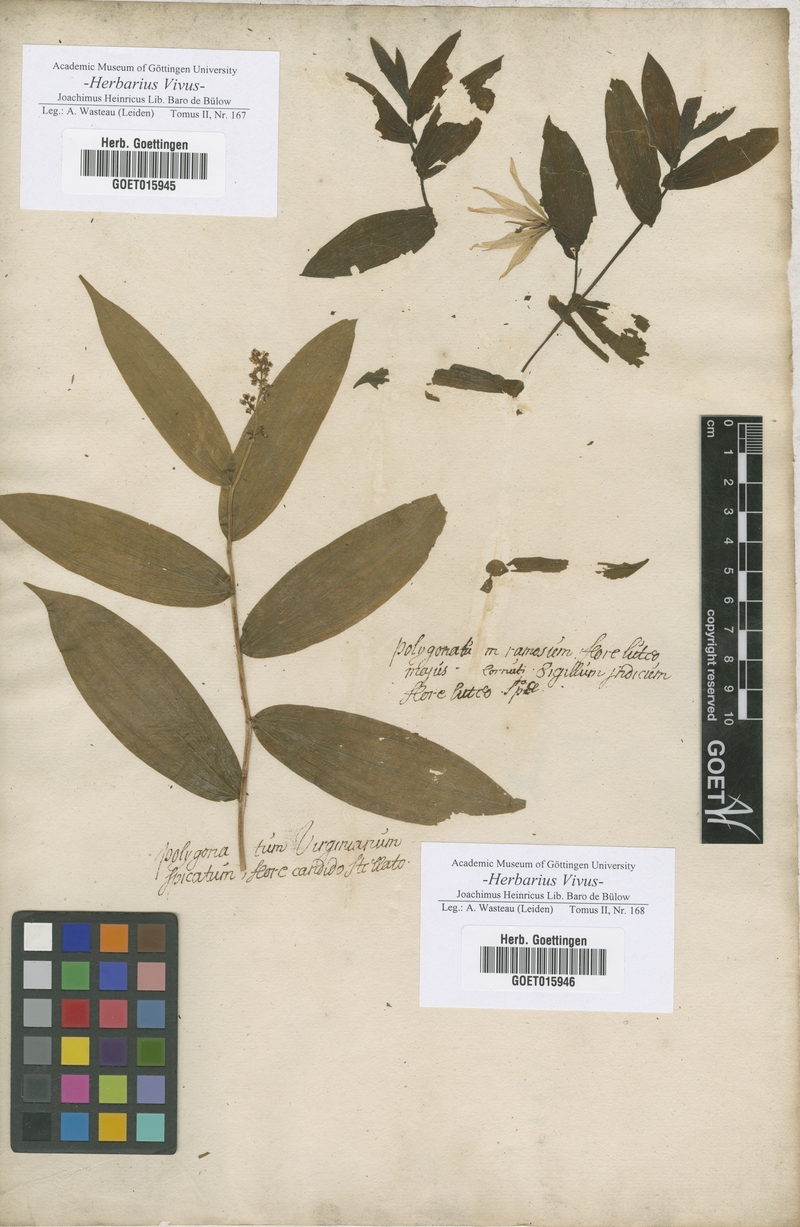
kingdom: Plantae
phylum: Tracheophyta
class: Liliopsida
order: Asparagales
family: Asparagaceae
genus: Polygonatum
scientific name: Polygonatum
